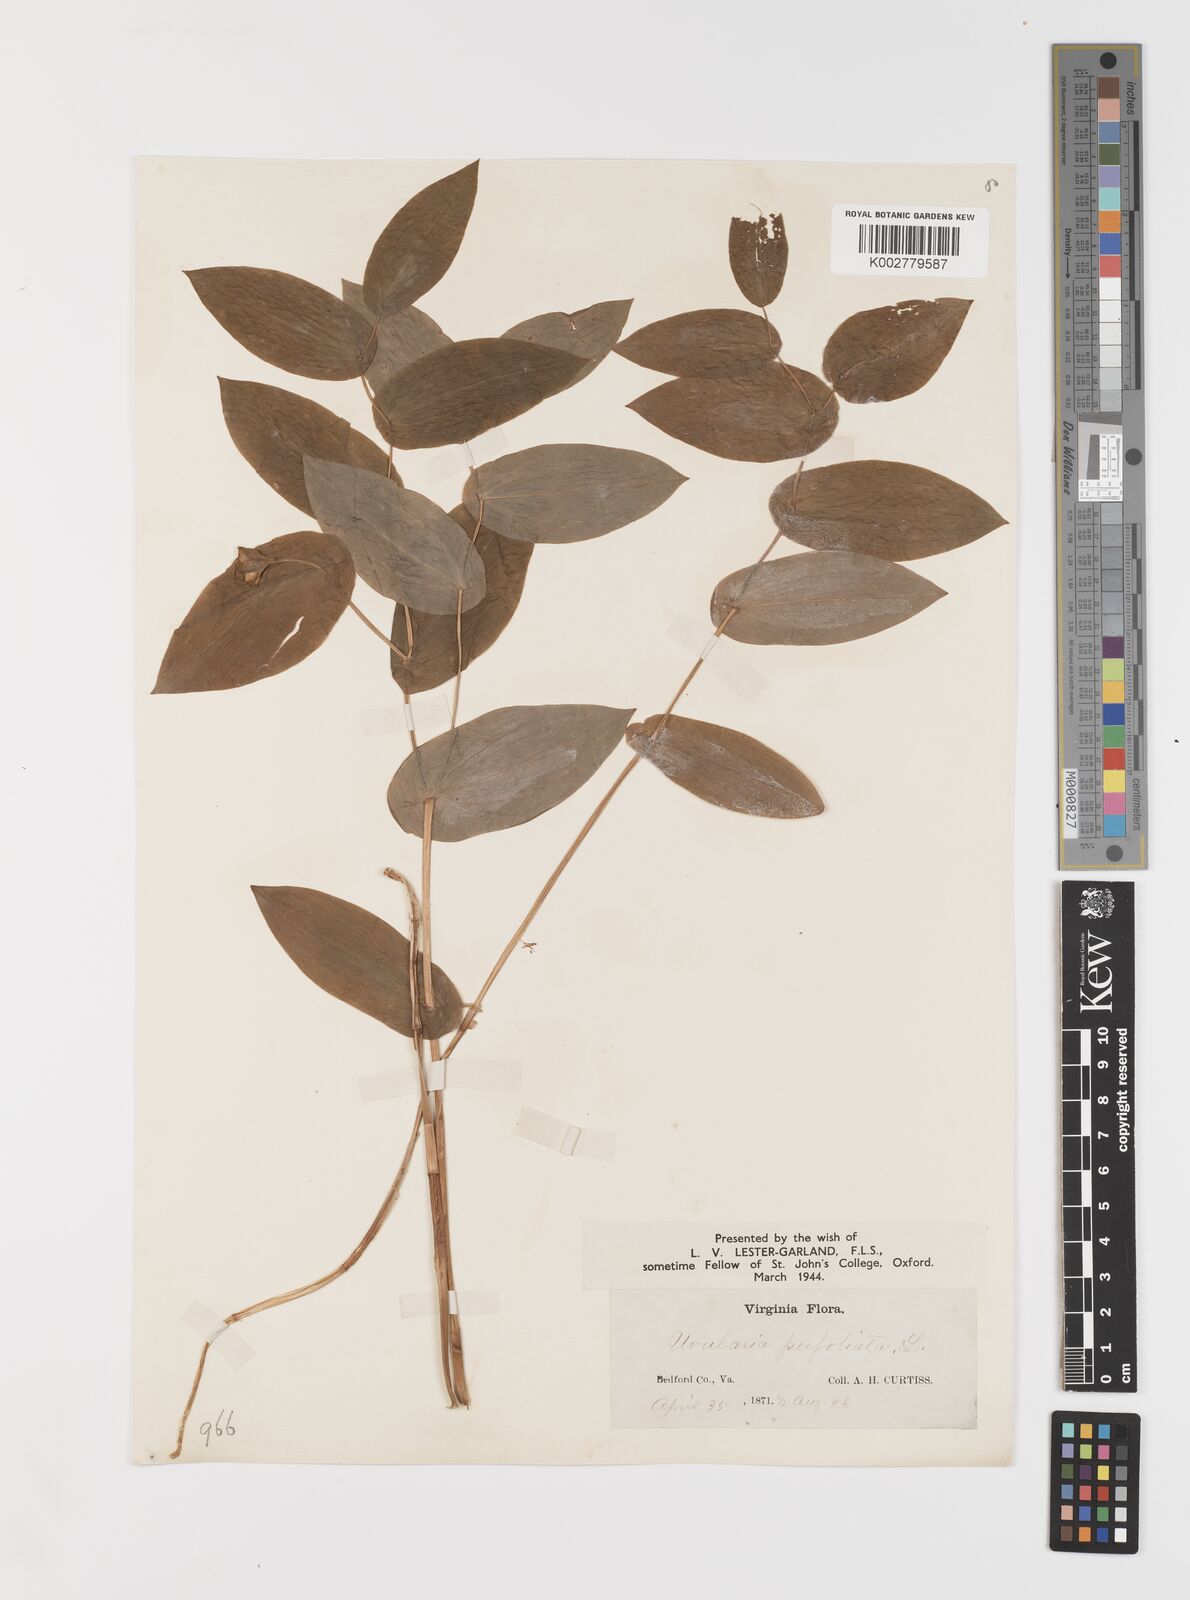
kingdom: Plantae
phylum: Tracheophyta
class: Liliopsida
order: Liliales
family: Colchicaceae
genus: Uvularia
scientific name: Uvularia perfoliata
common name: Perfoliate bellwort
